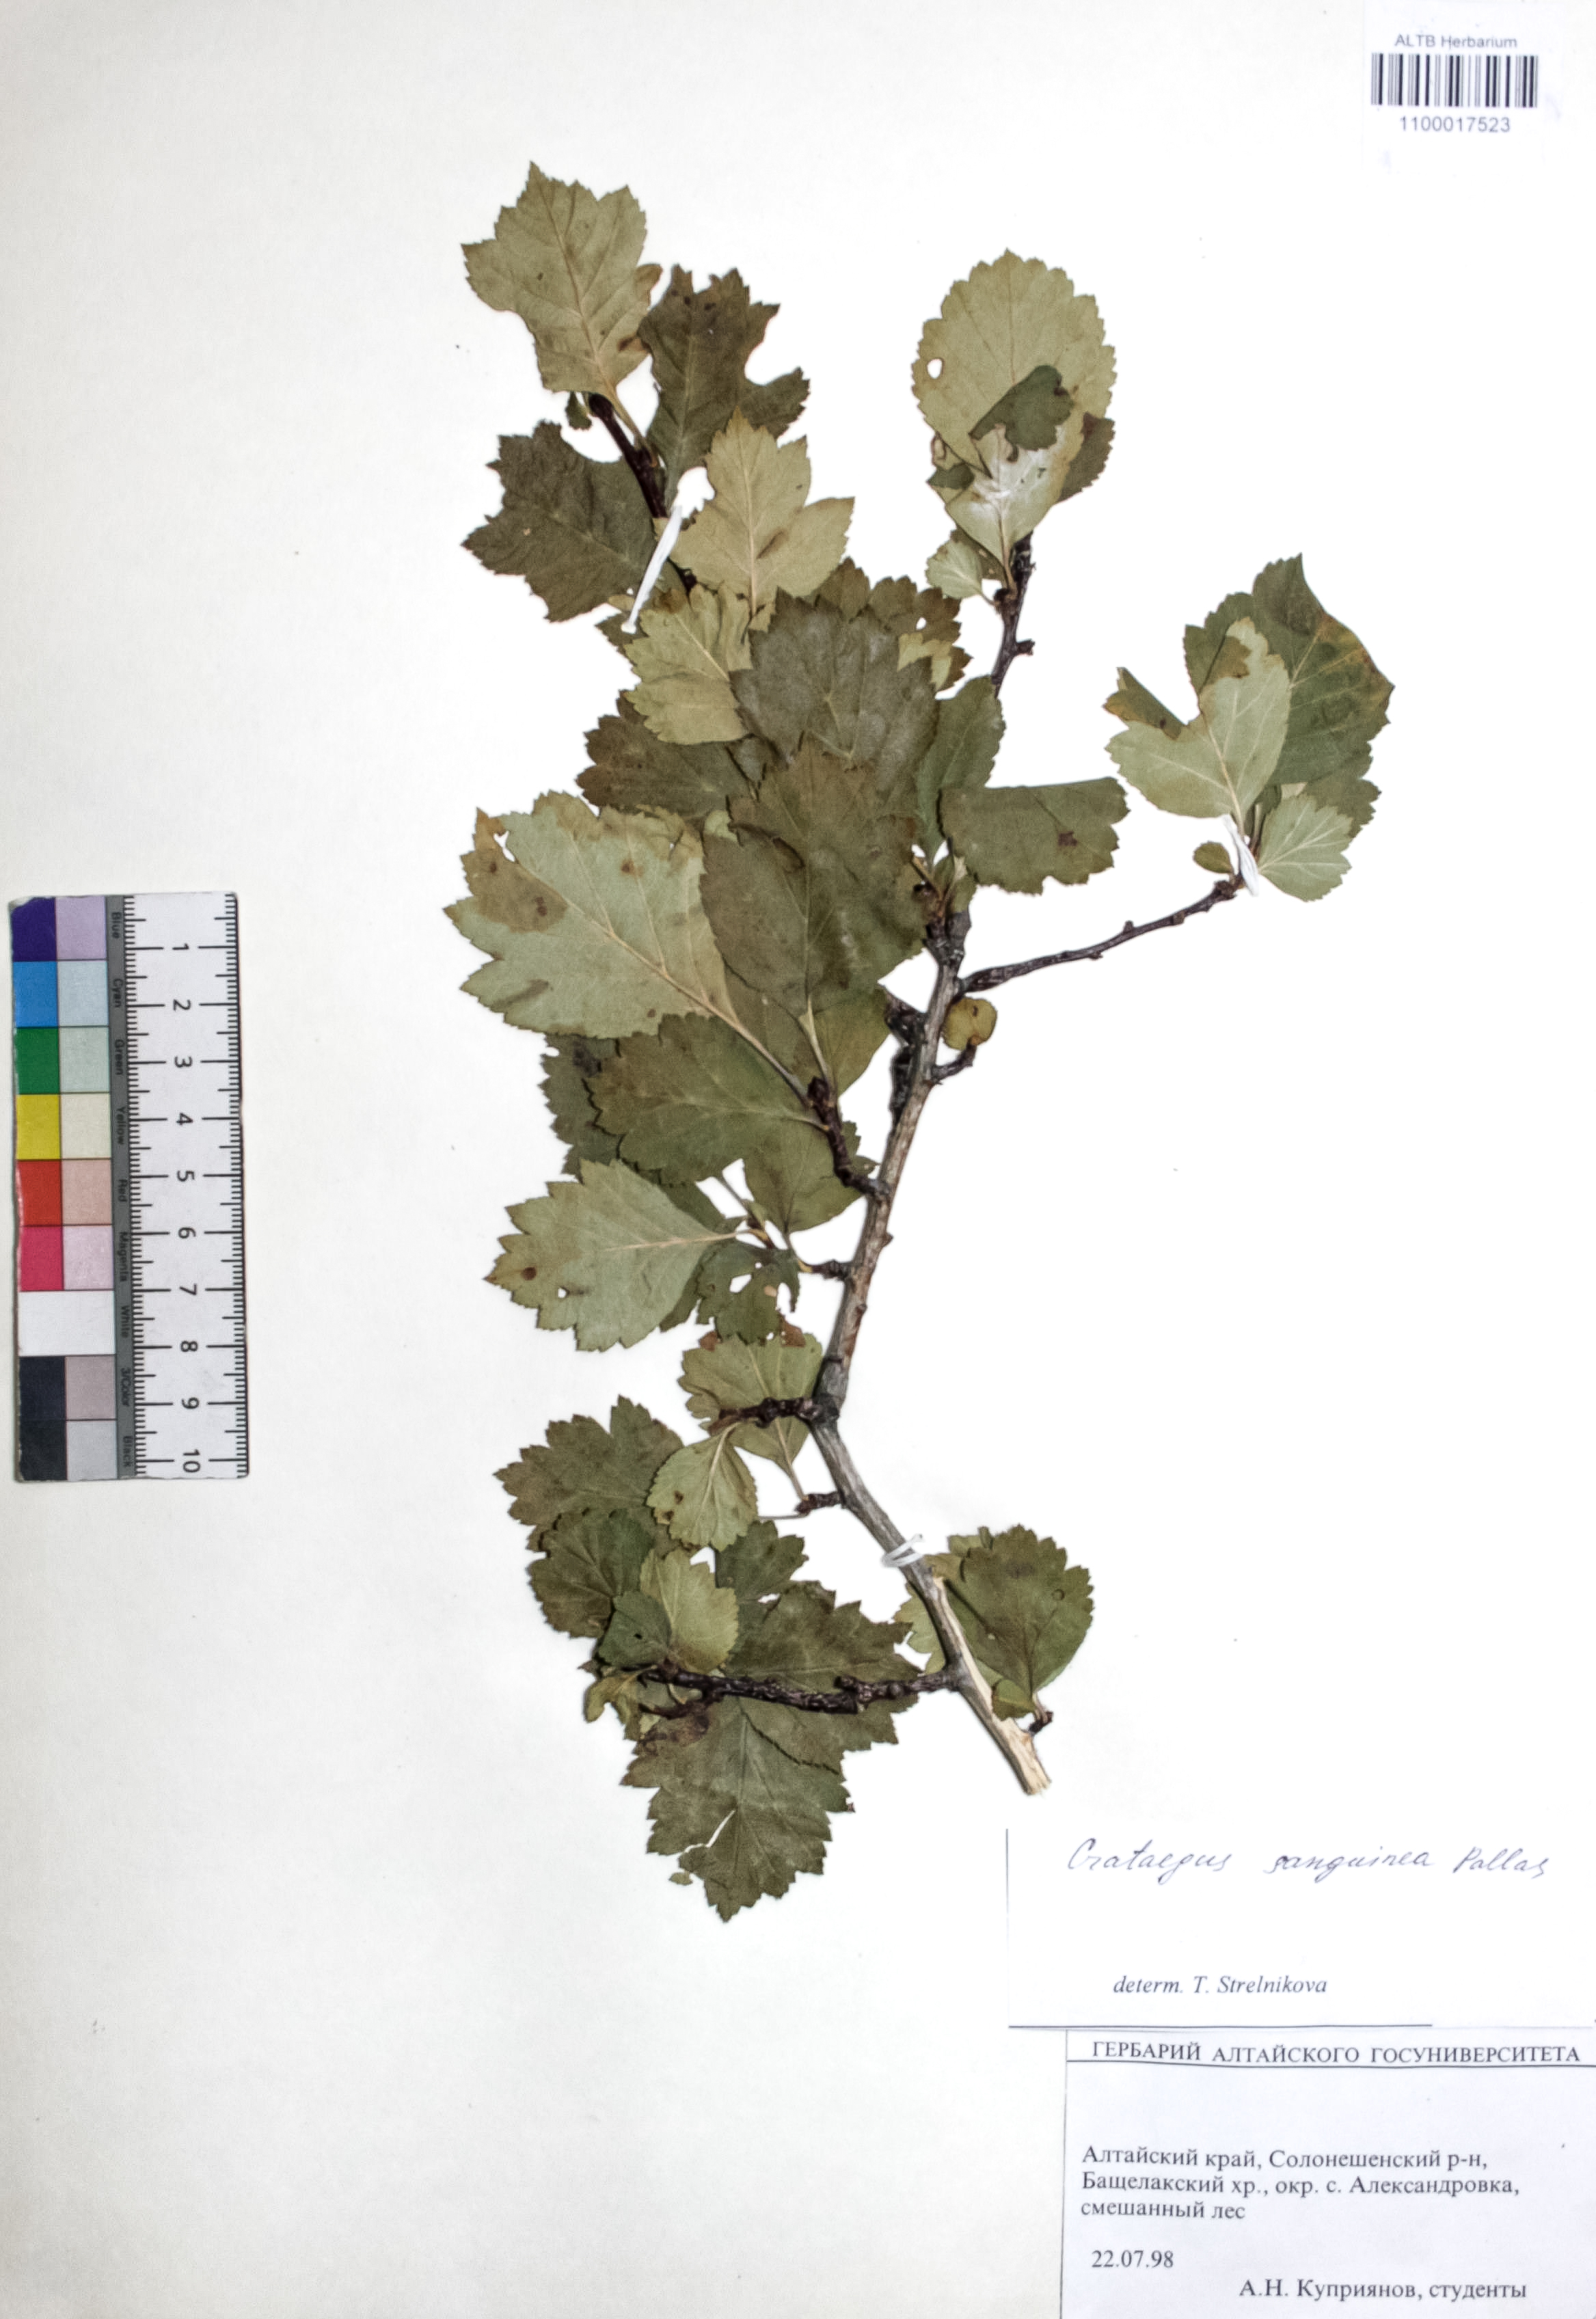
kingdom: Plantae
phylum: Tracheophyta
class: Magnoliopsida
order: Rosales
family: Rosaceae
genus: Crataegus
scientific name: Crataegus sanguinea
